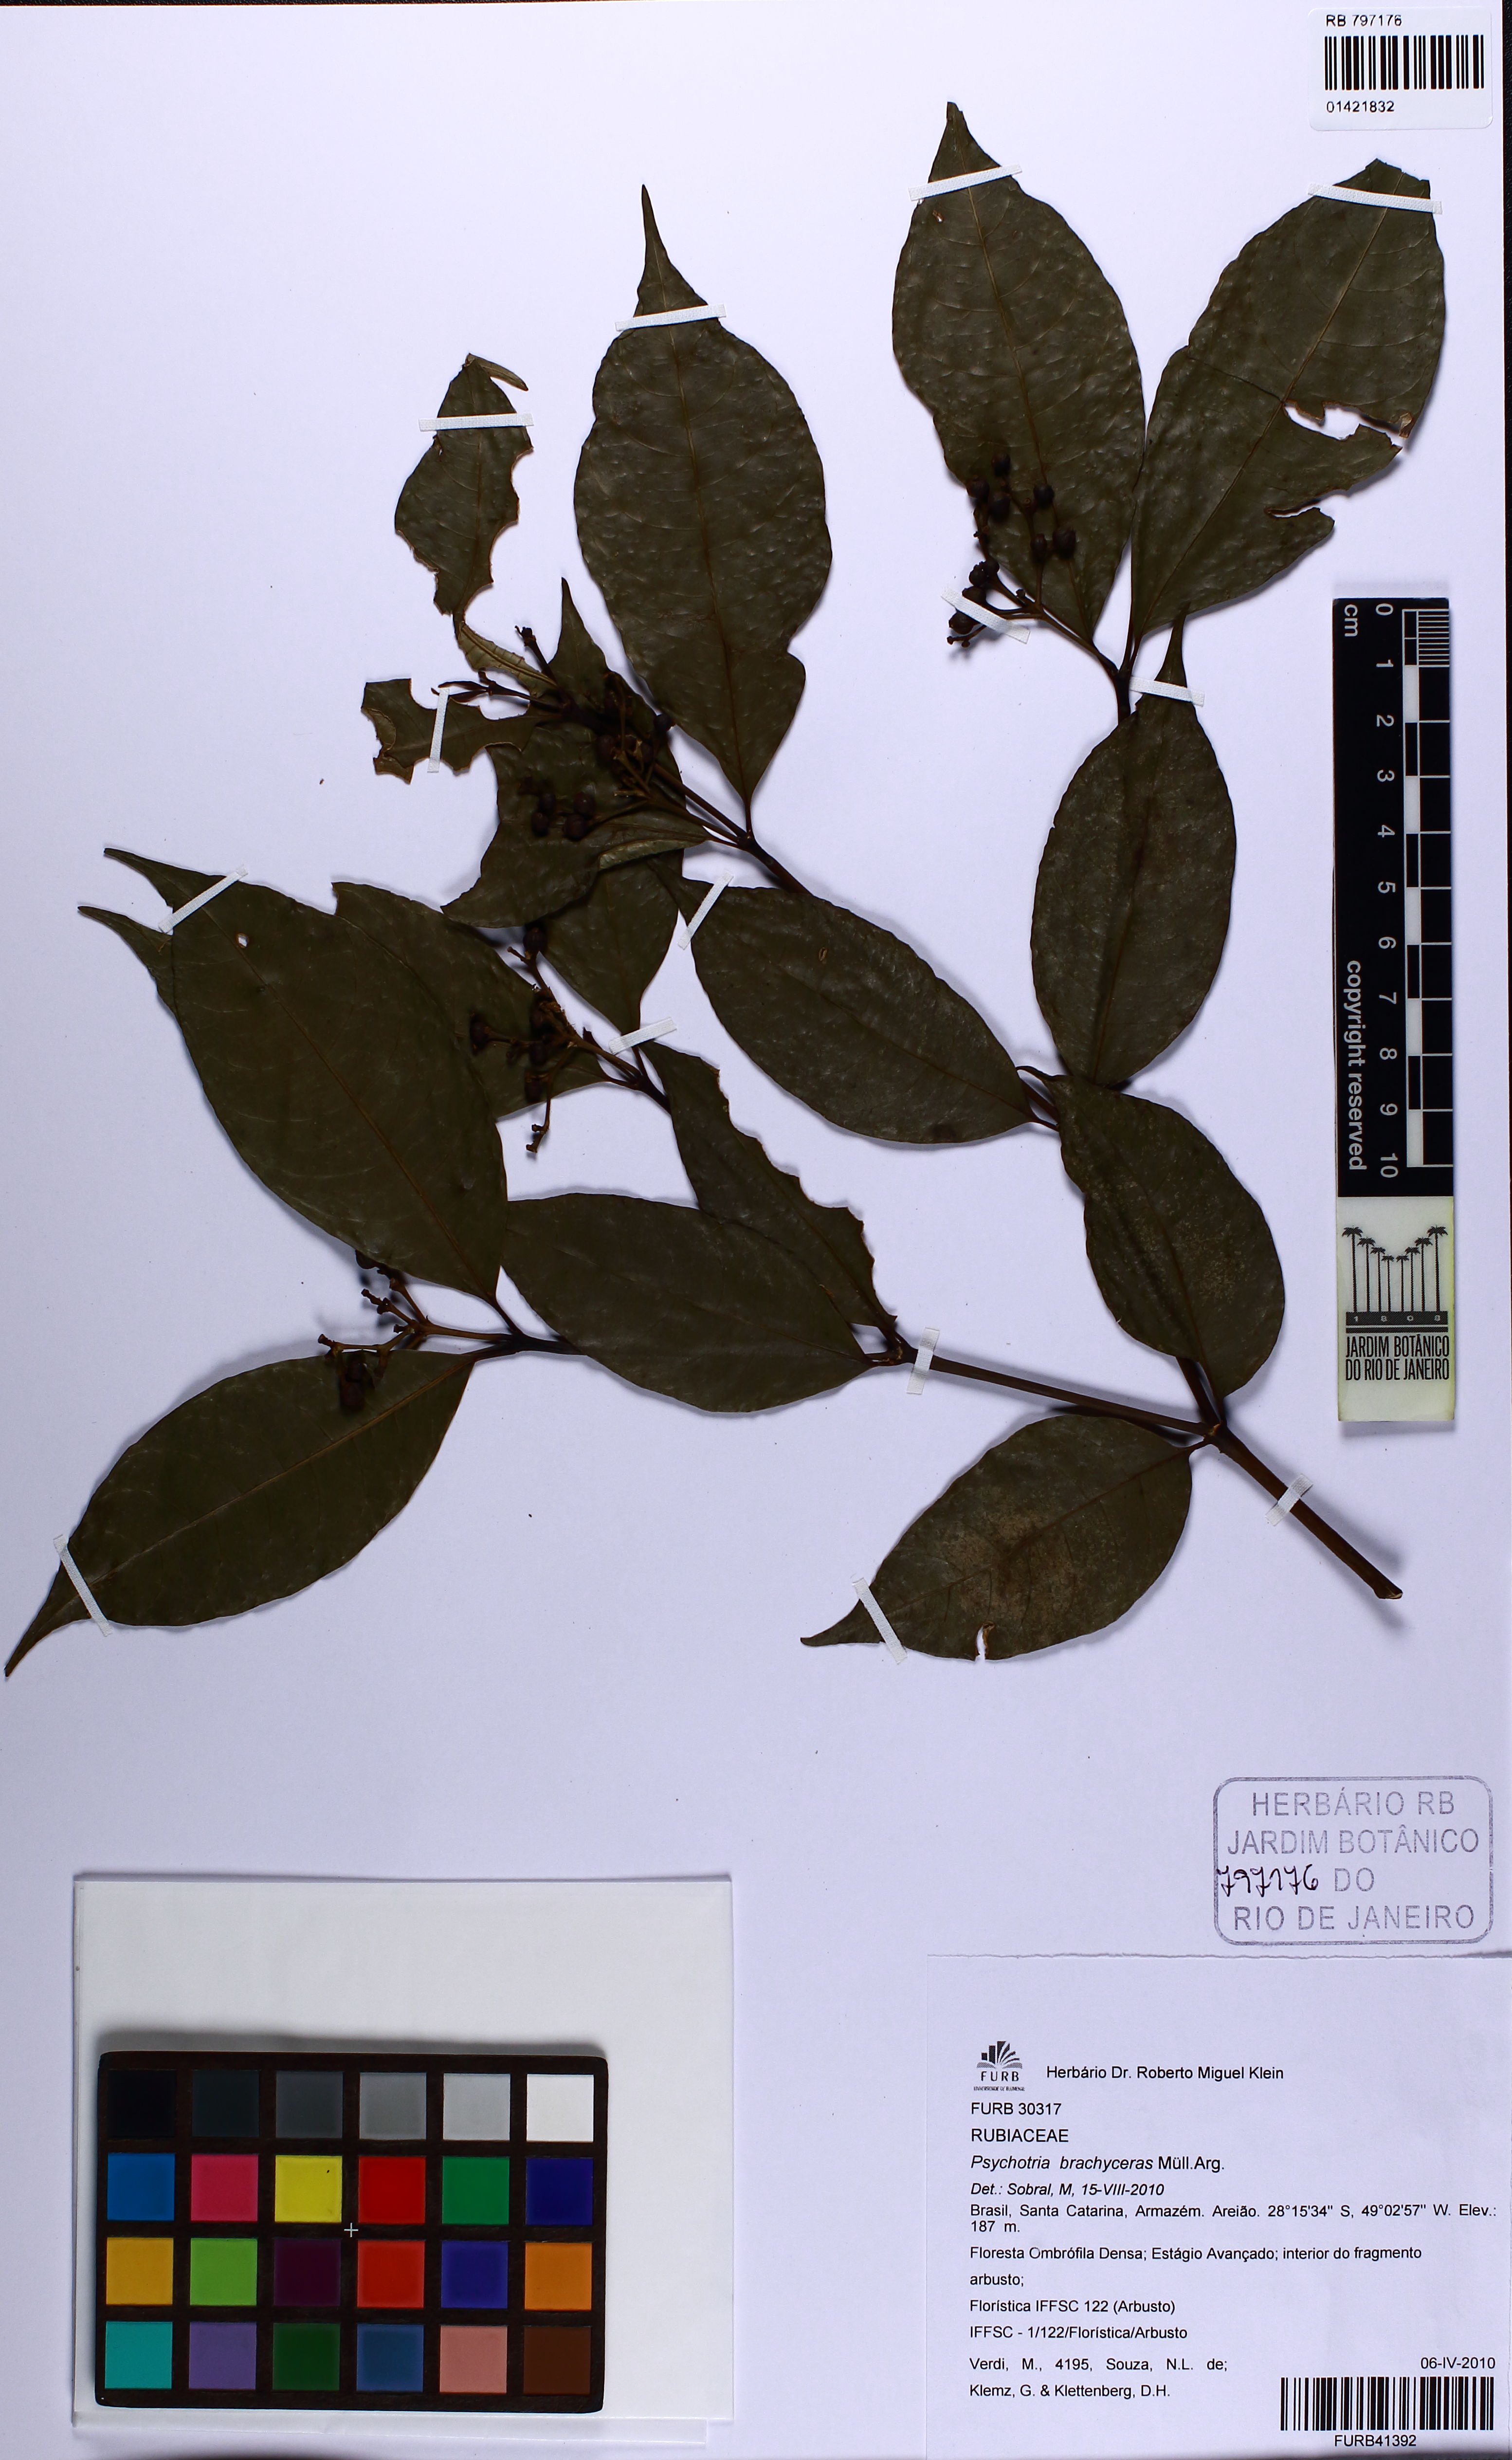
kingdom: Plantae
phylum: Tracheophyta
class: Magnoliopsida
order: Gentianales
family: Rubiaceae
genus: Psychotria
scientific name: Psychotria brachyceras
